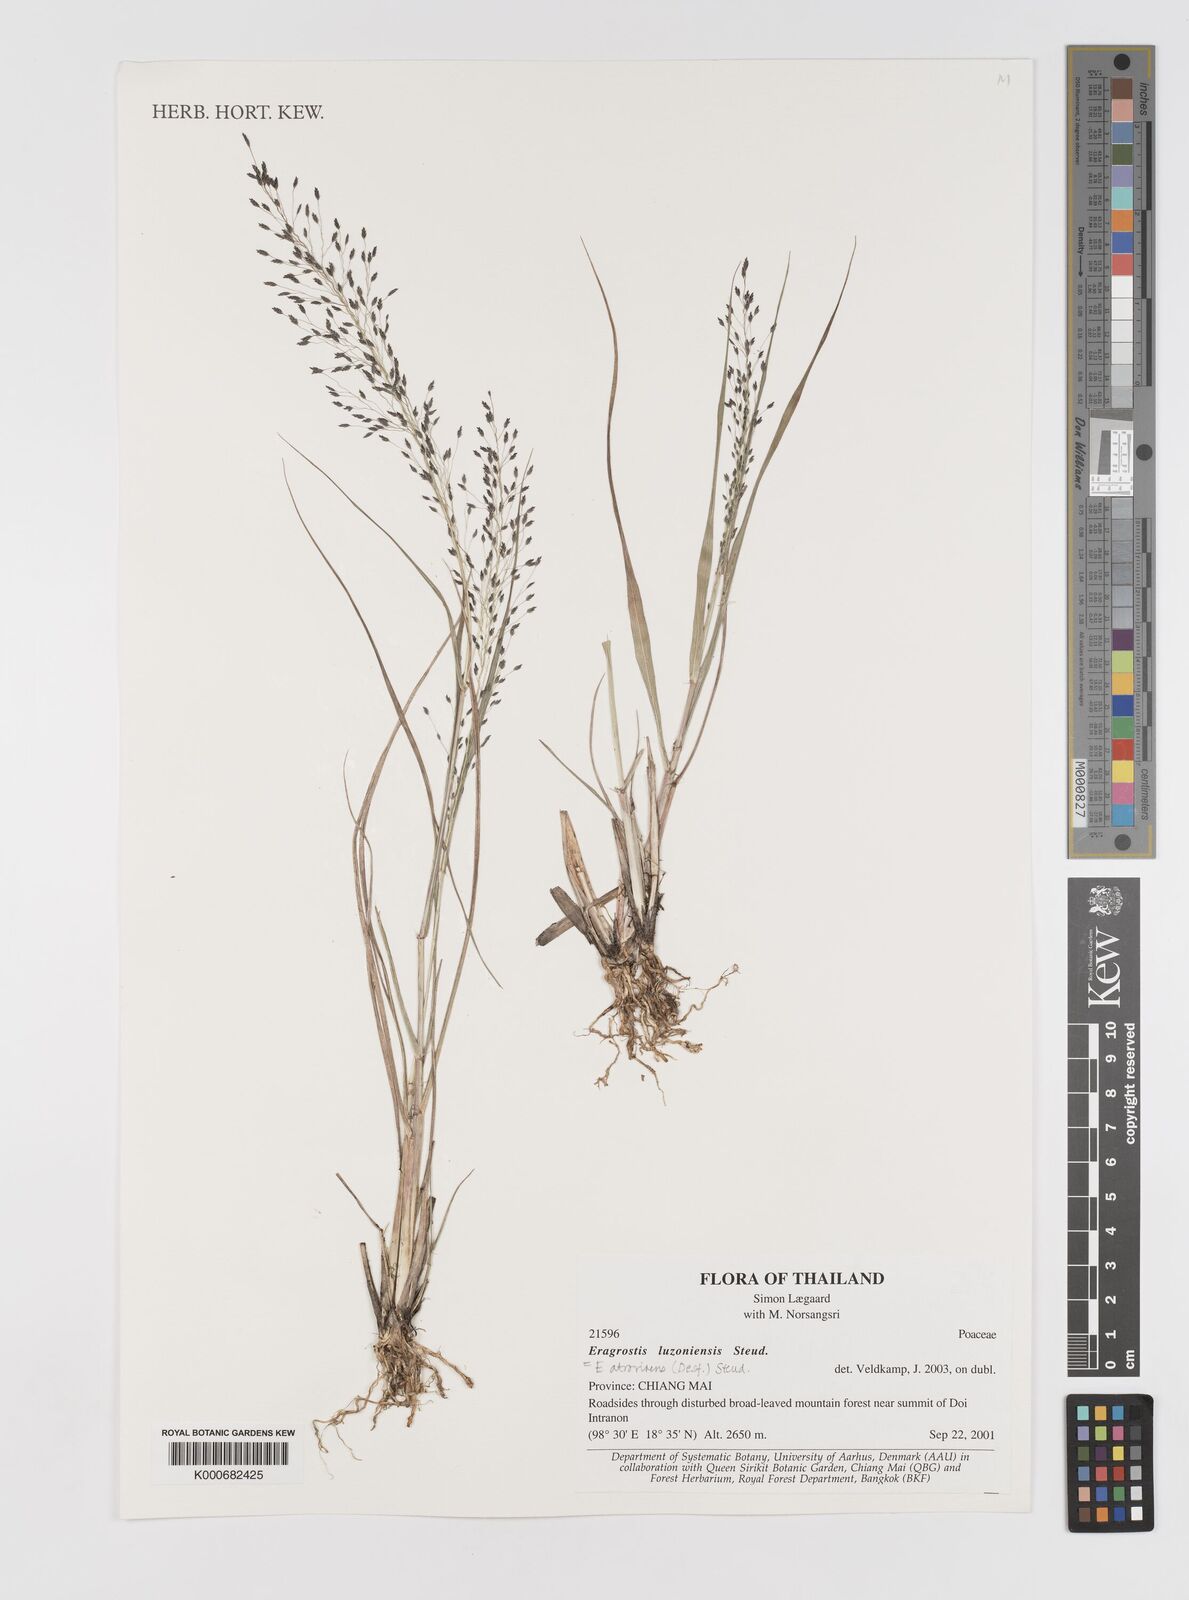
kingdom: Plantae
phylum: Tracheophyta
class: Liliopsida
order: Poales
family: Poaceae
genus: Eragrostis
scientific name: Eragrostis
